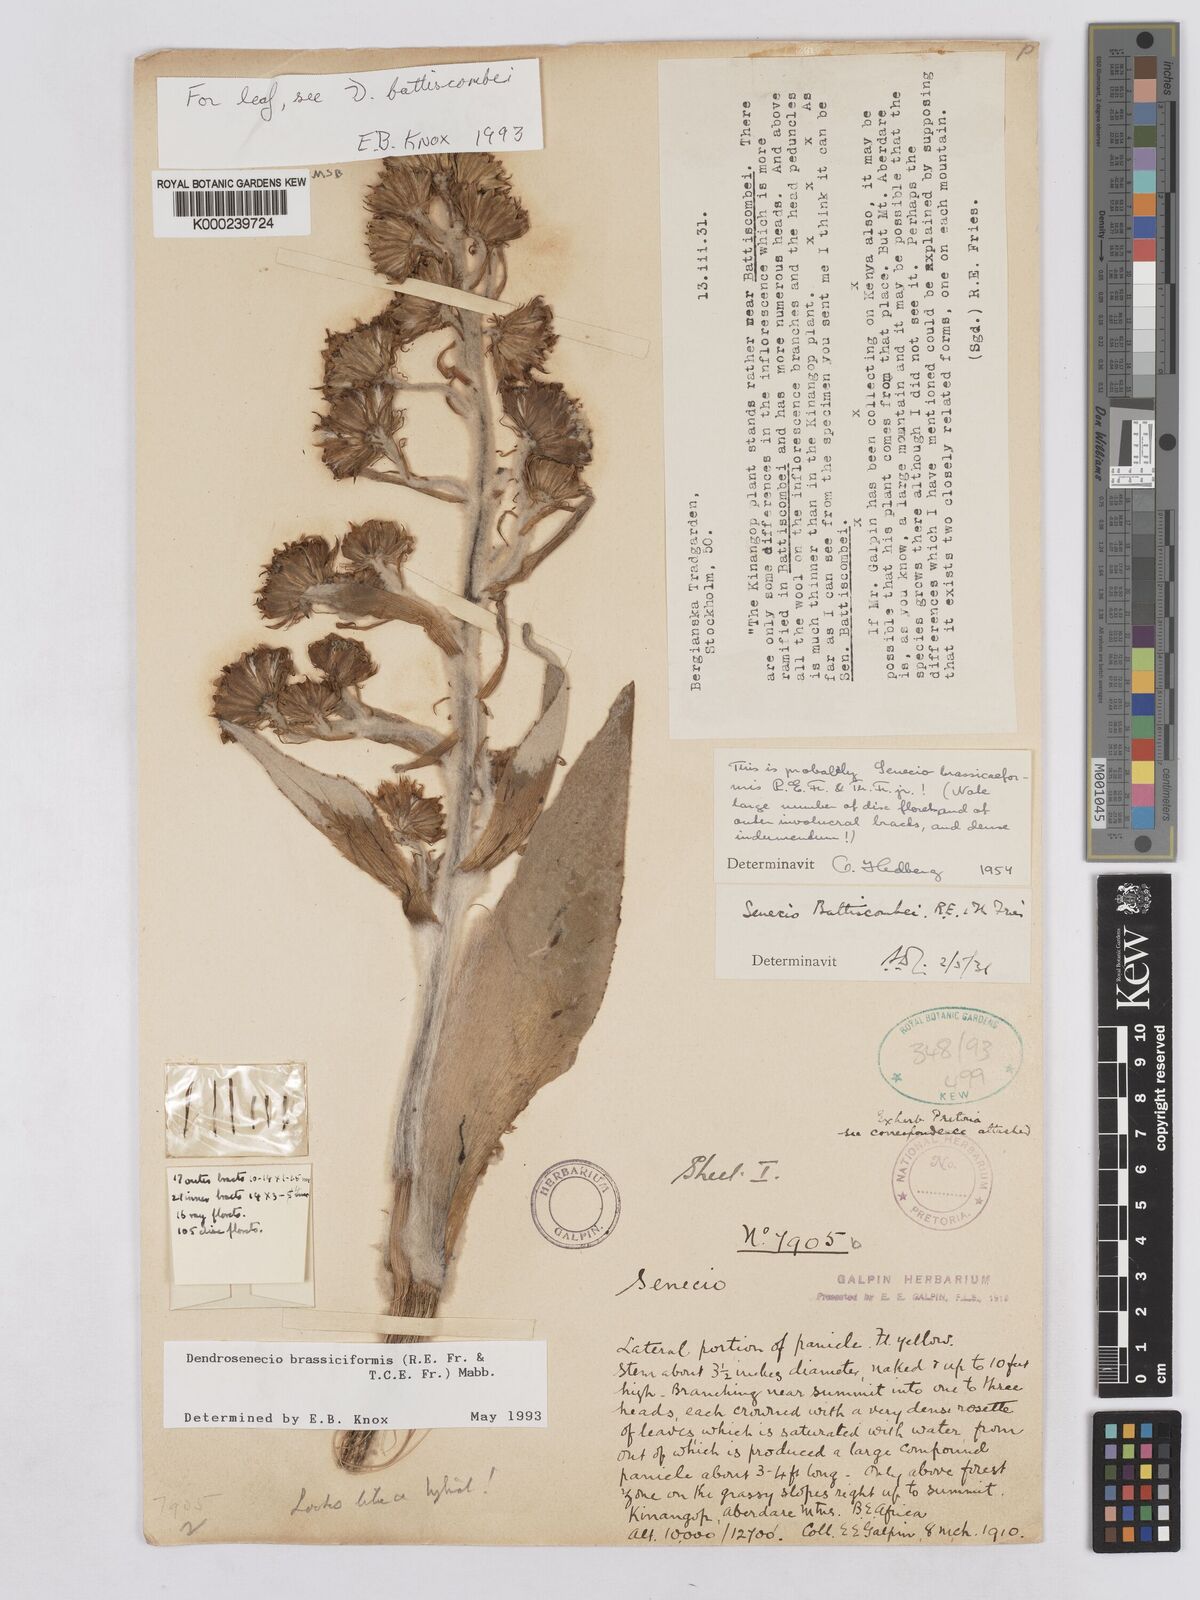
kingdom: Plantae
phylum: Tracheophyta
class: Magnoliopsida
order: Asterales
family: Asteraceae
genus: Dendrosenecio
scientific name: Dendrosenecio brassiciformis
